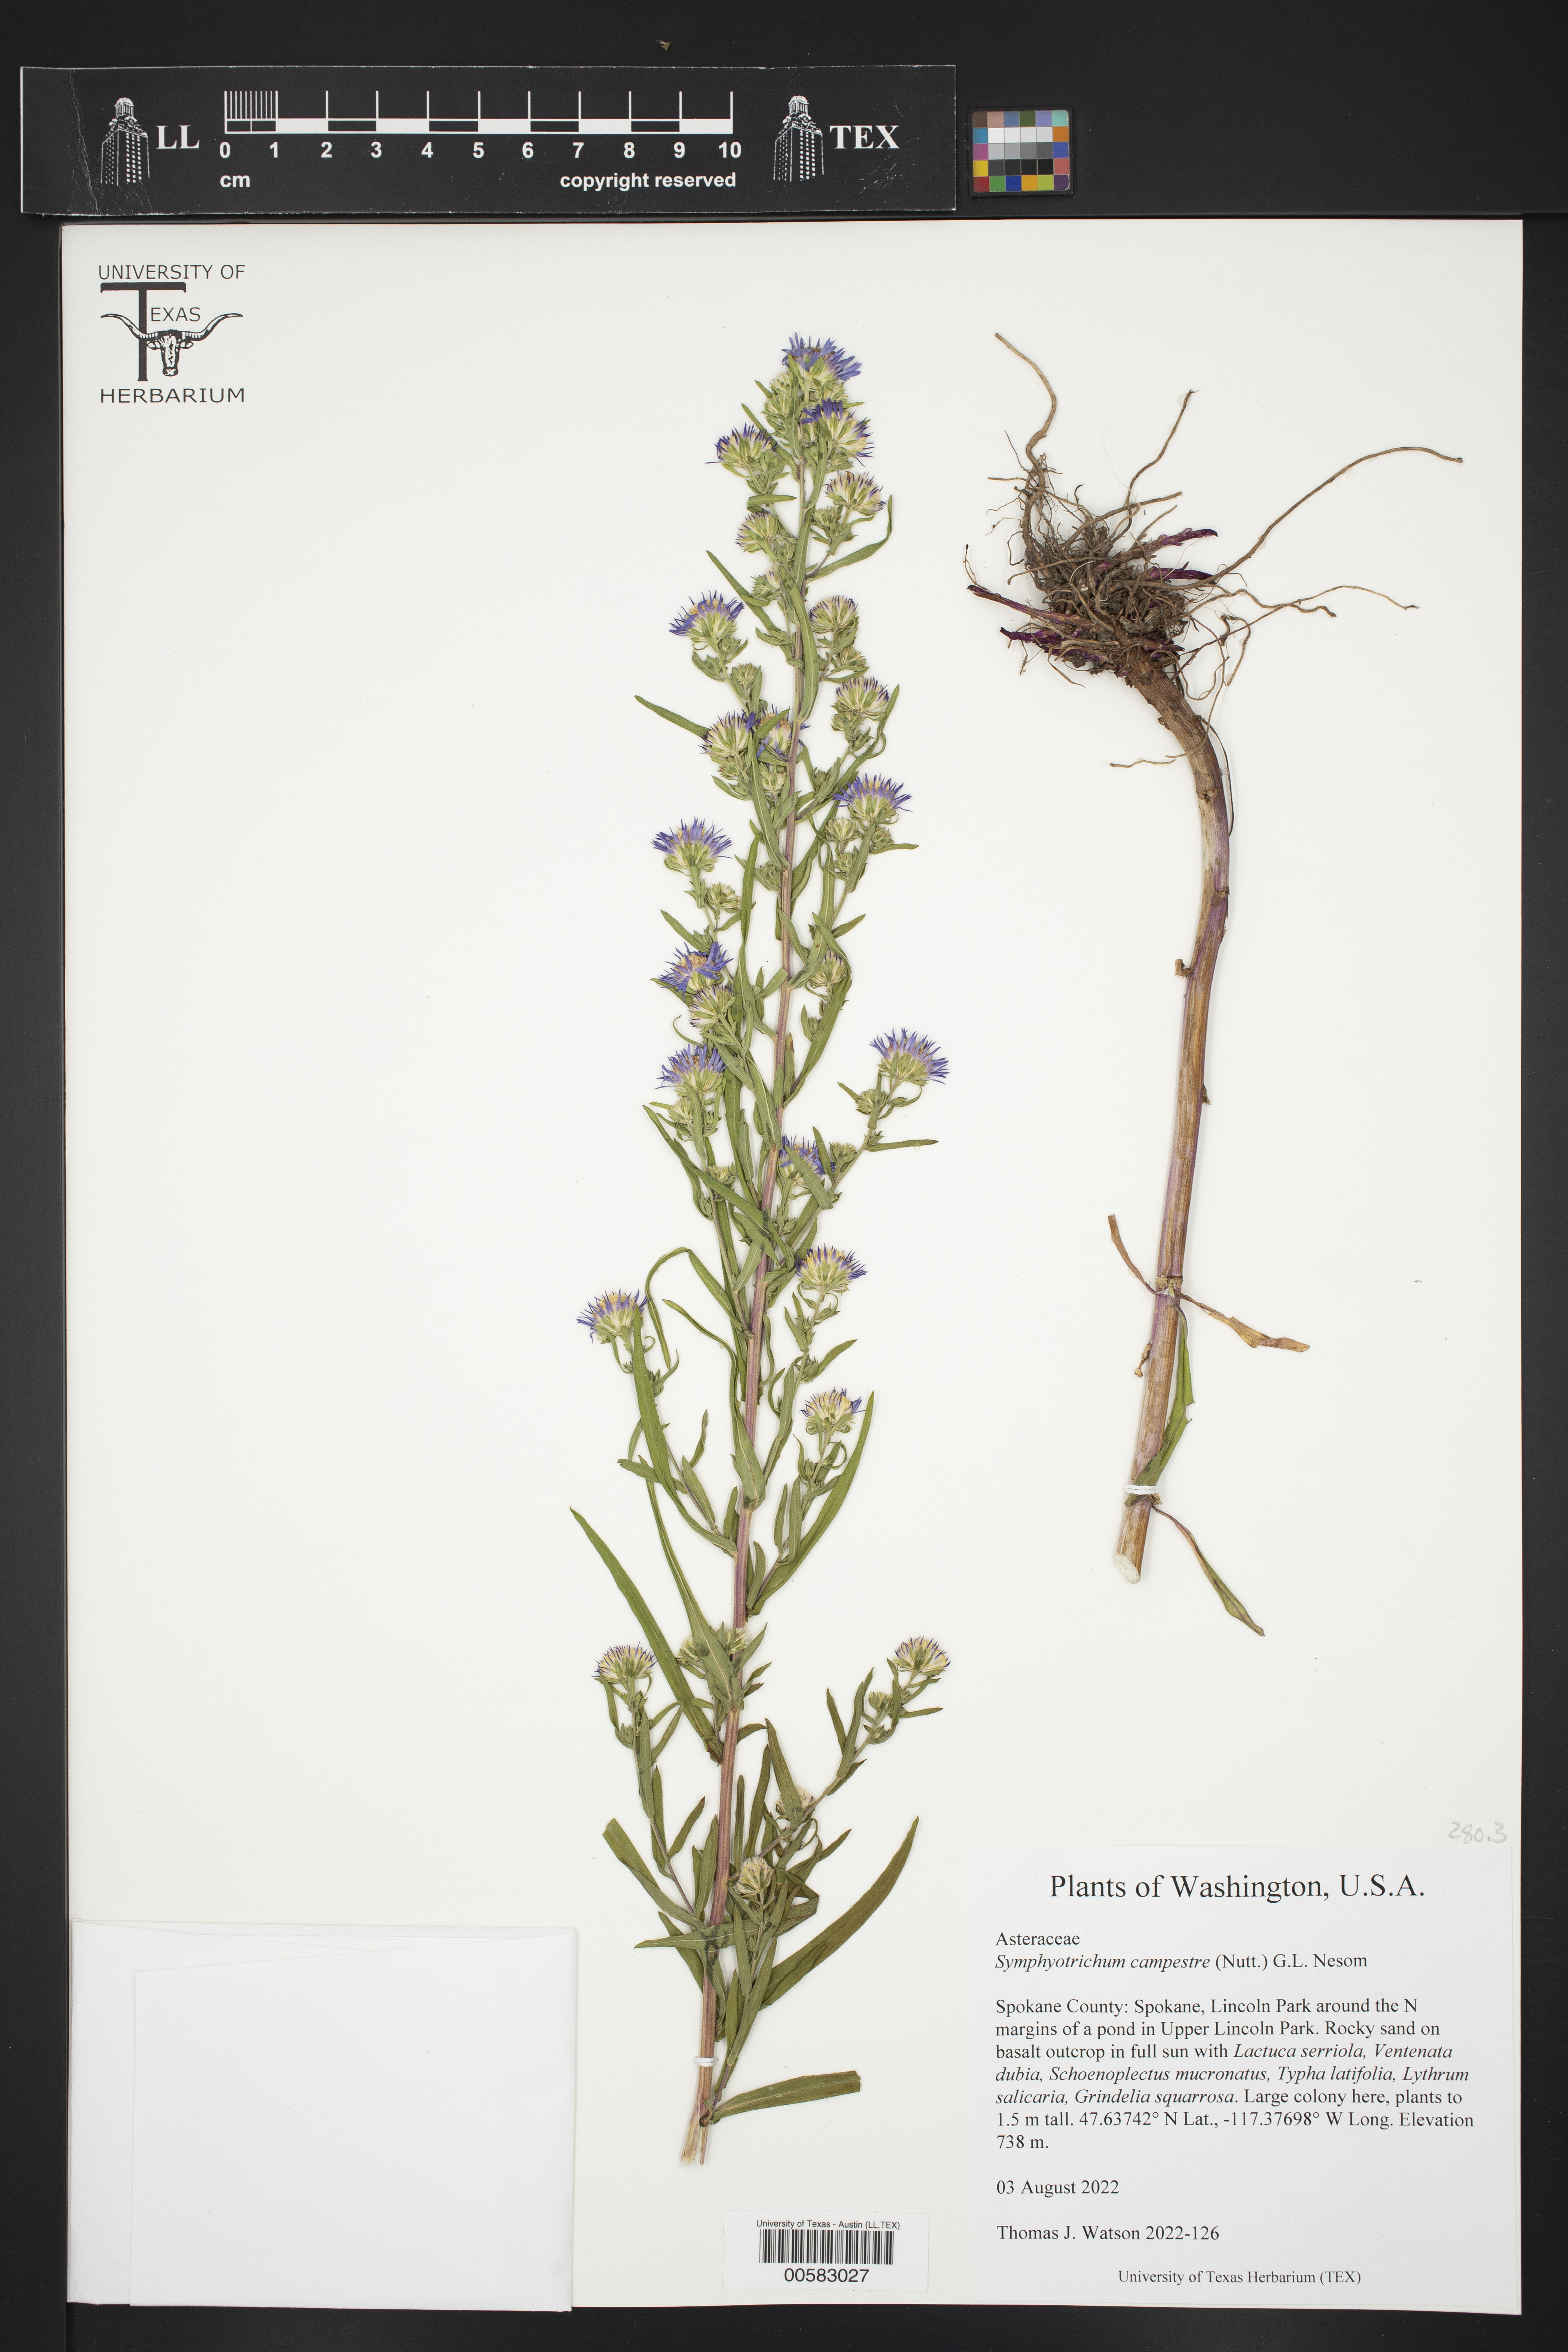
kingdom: Plantae
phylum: Tracheophyta
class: Magnoliopsida
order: Asterales
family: Asteraceae
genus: Symphyotrichum
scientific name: Symphyotrichum campestre
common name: Meadow aster
